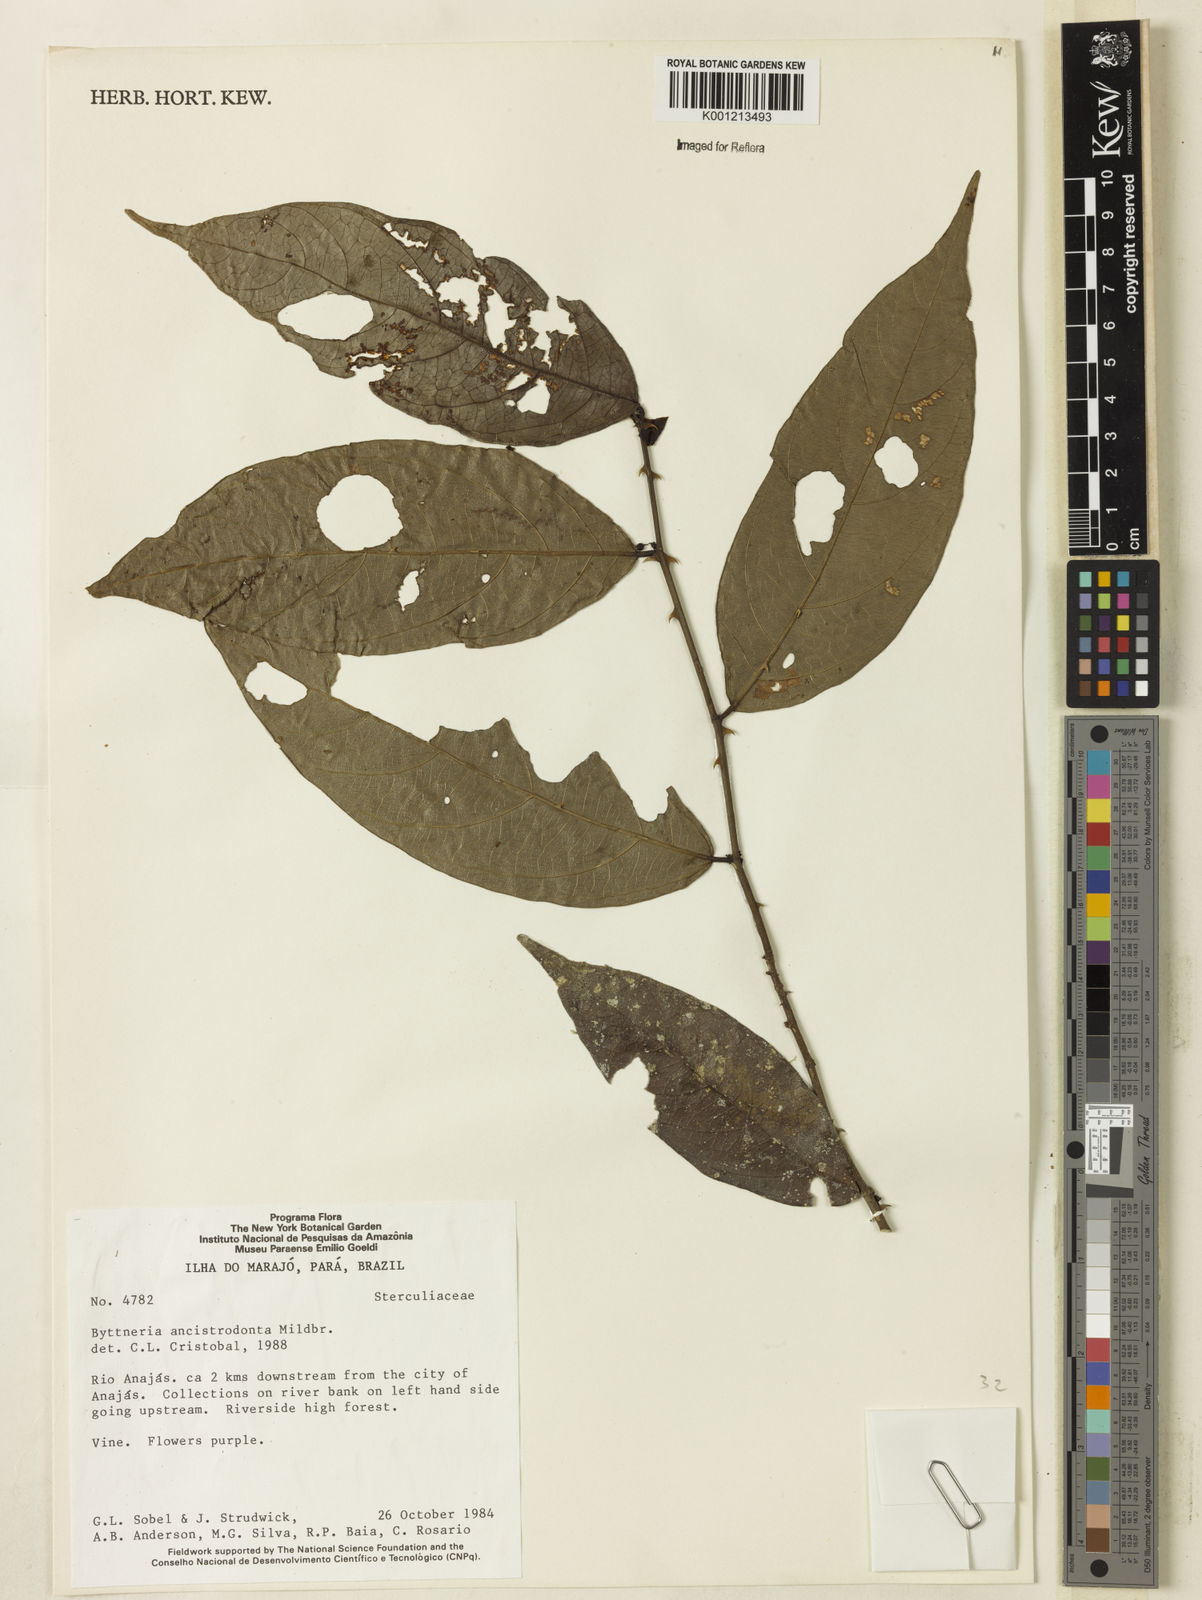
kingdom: Plantae
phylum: Tracheophyta
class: Magnoliopsida
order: Malvales
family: Malvaceae
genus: Byttneria
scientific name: Byttneria ancistrodonta
